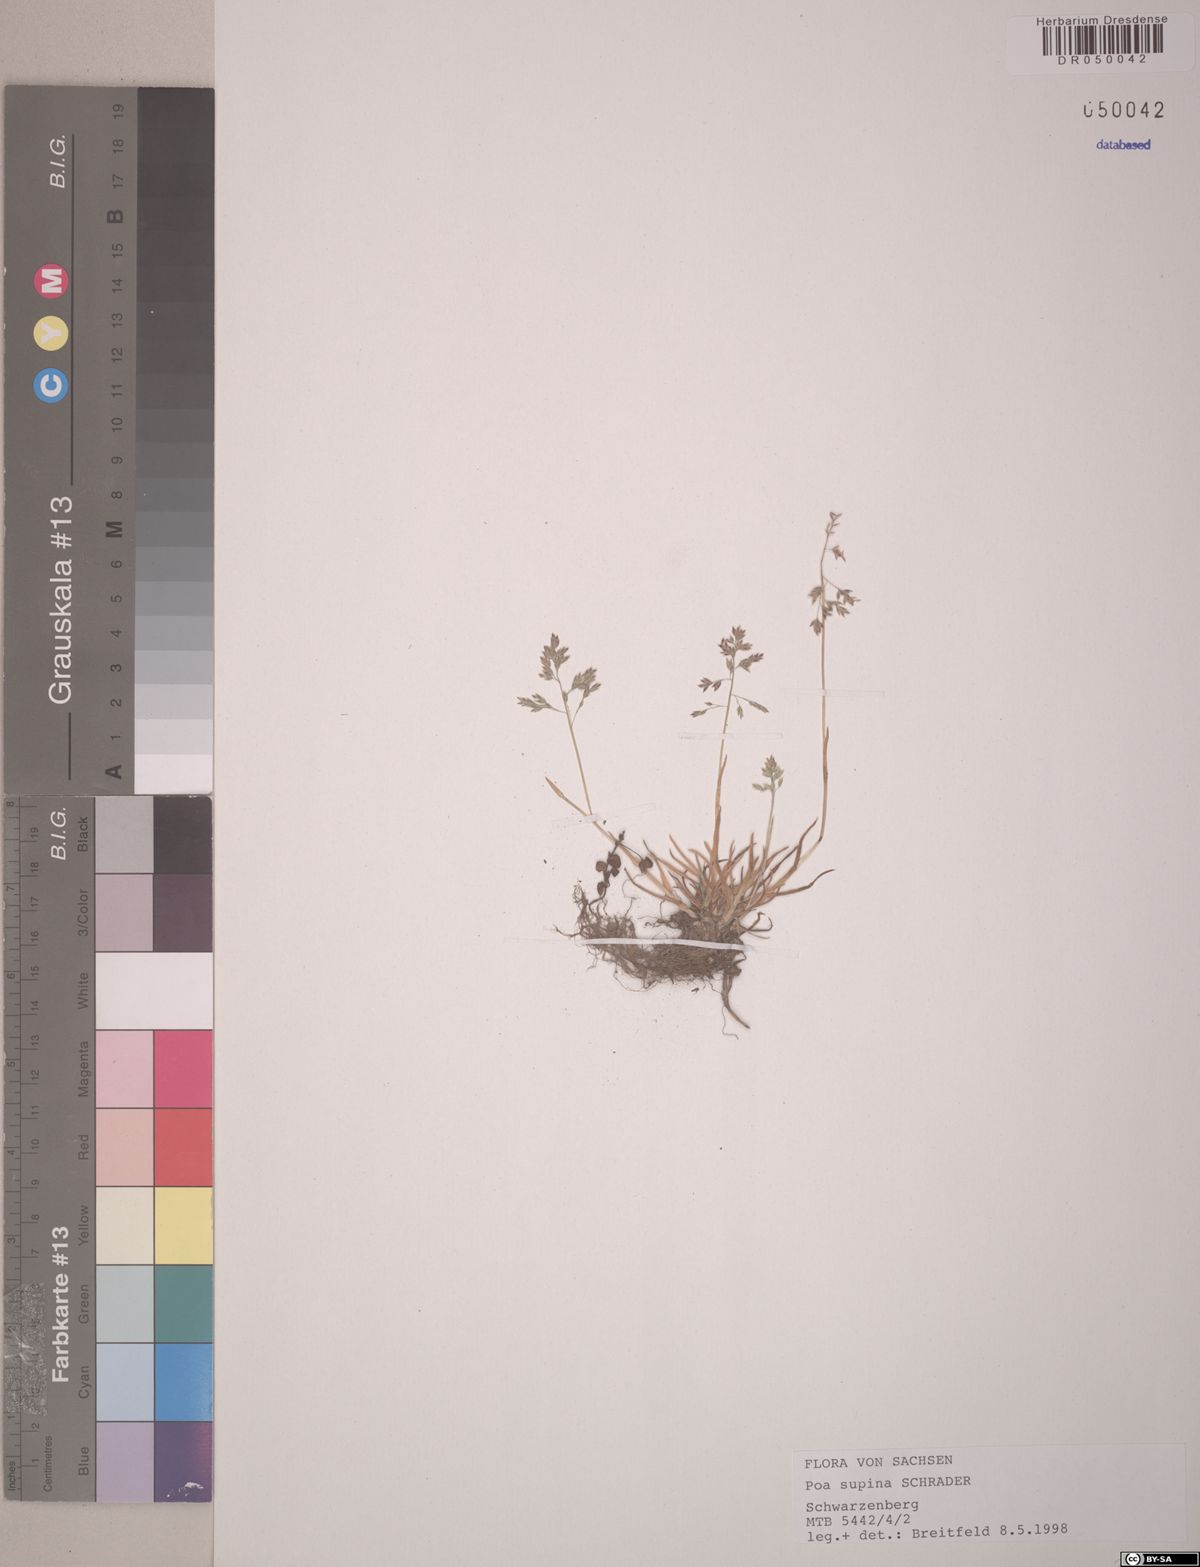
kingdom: Plantae
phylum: Tracheophyta
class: Liliopsida
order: Poales
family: Poaceae
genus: Poa
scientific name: Poa supina
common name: Supina bluegrass
